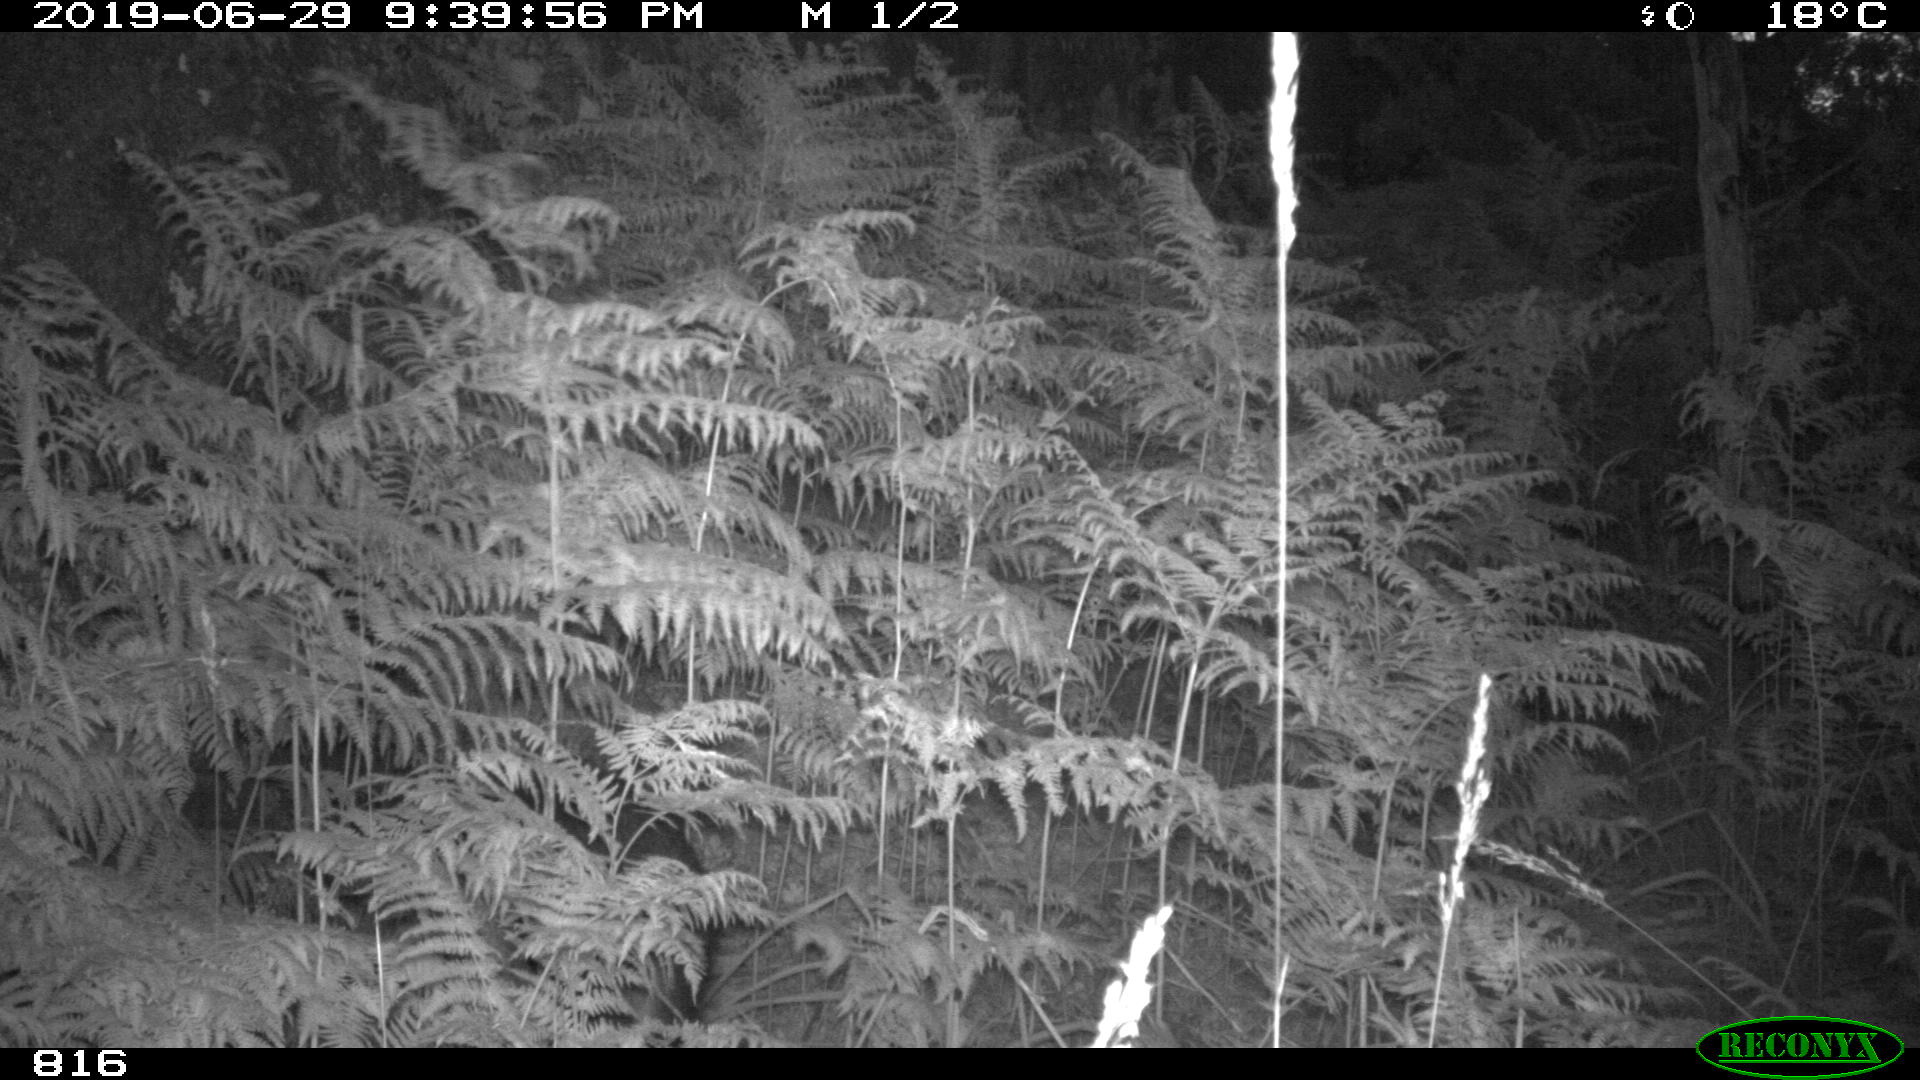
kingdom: Animalia
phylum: Chordata
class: Mammalia
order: Artiodactyla
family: Suidae
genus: Sus
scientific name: Sus scrofa
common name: Wild boar
